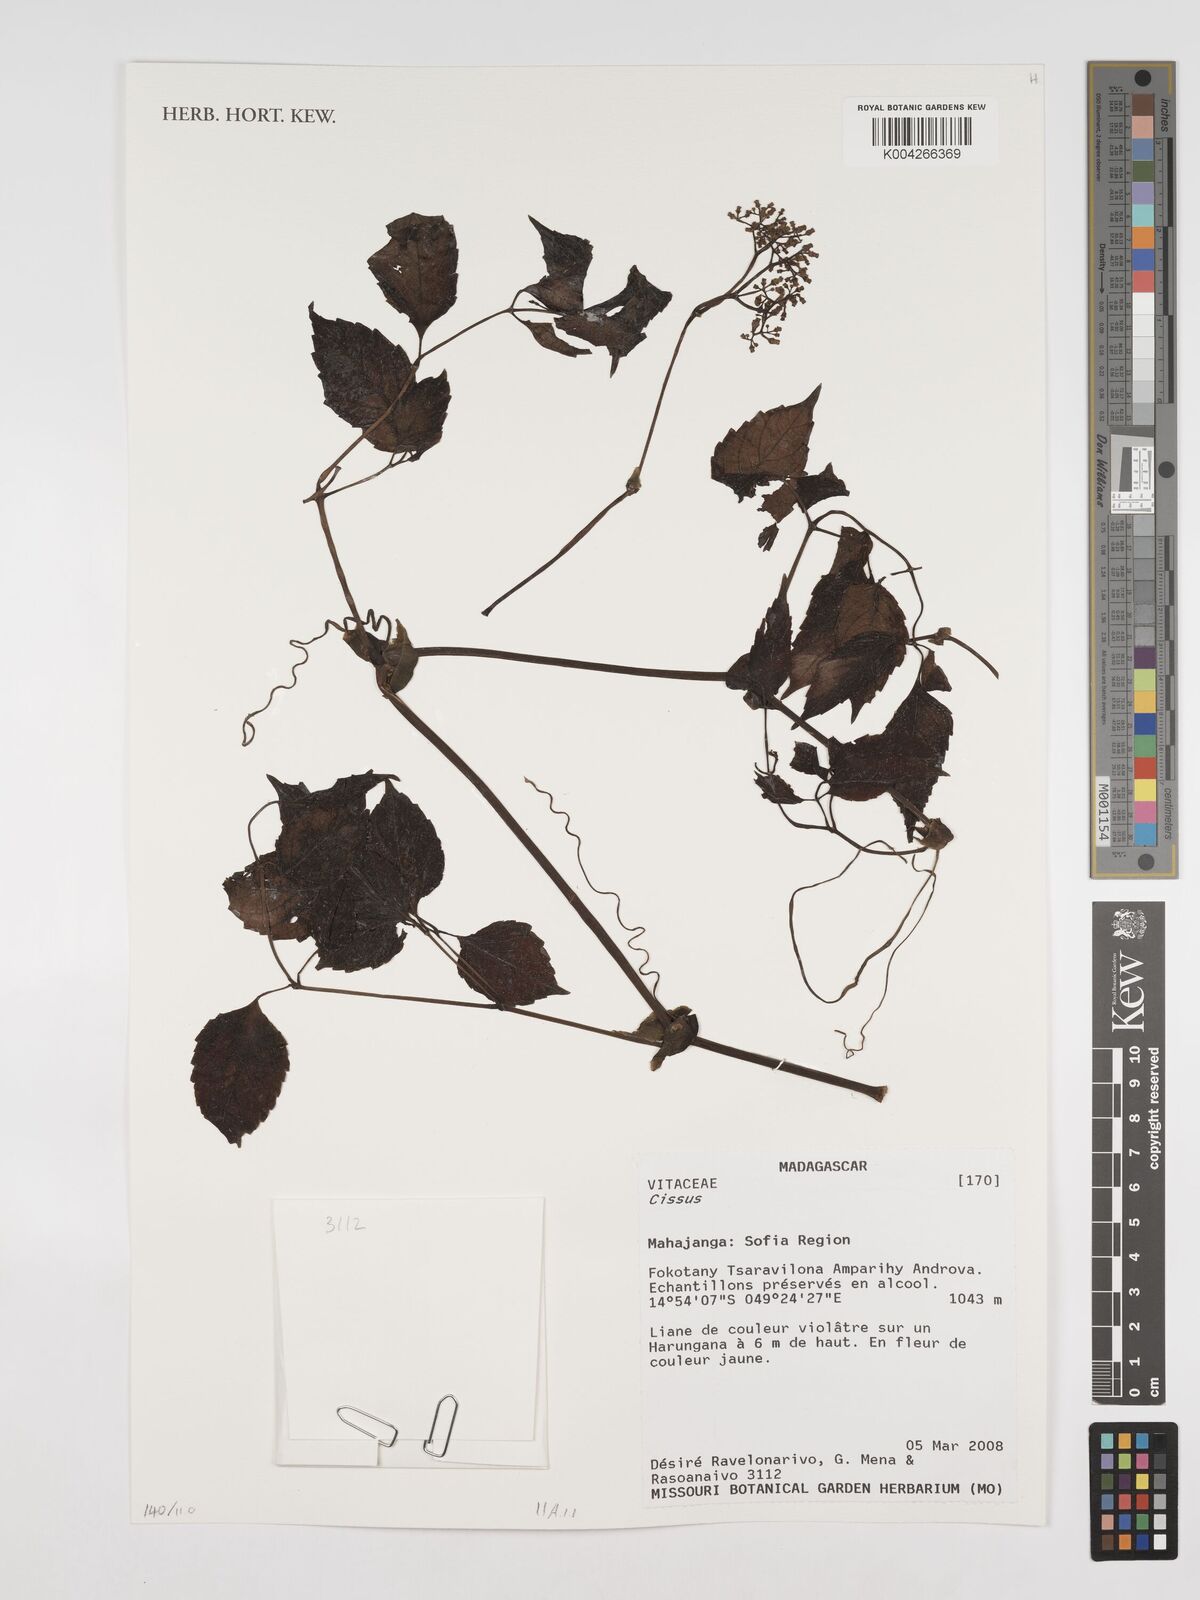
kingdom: Plantae
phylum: Tracheophyta
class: Magnoliopsida
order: Vitales
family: Vitaceae
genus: Cissus
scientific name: Cissus
